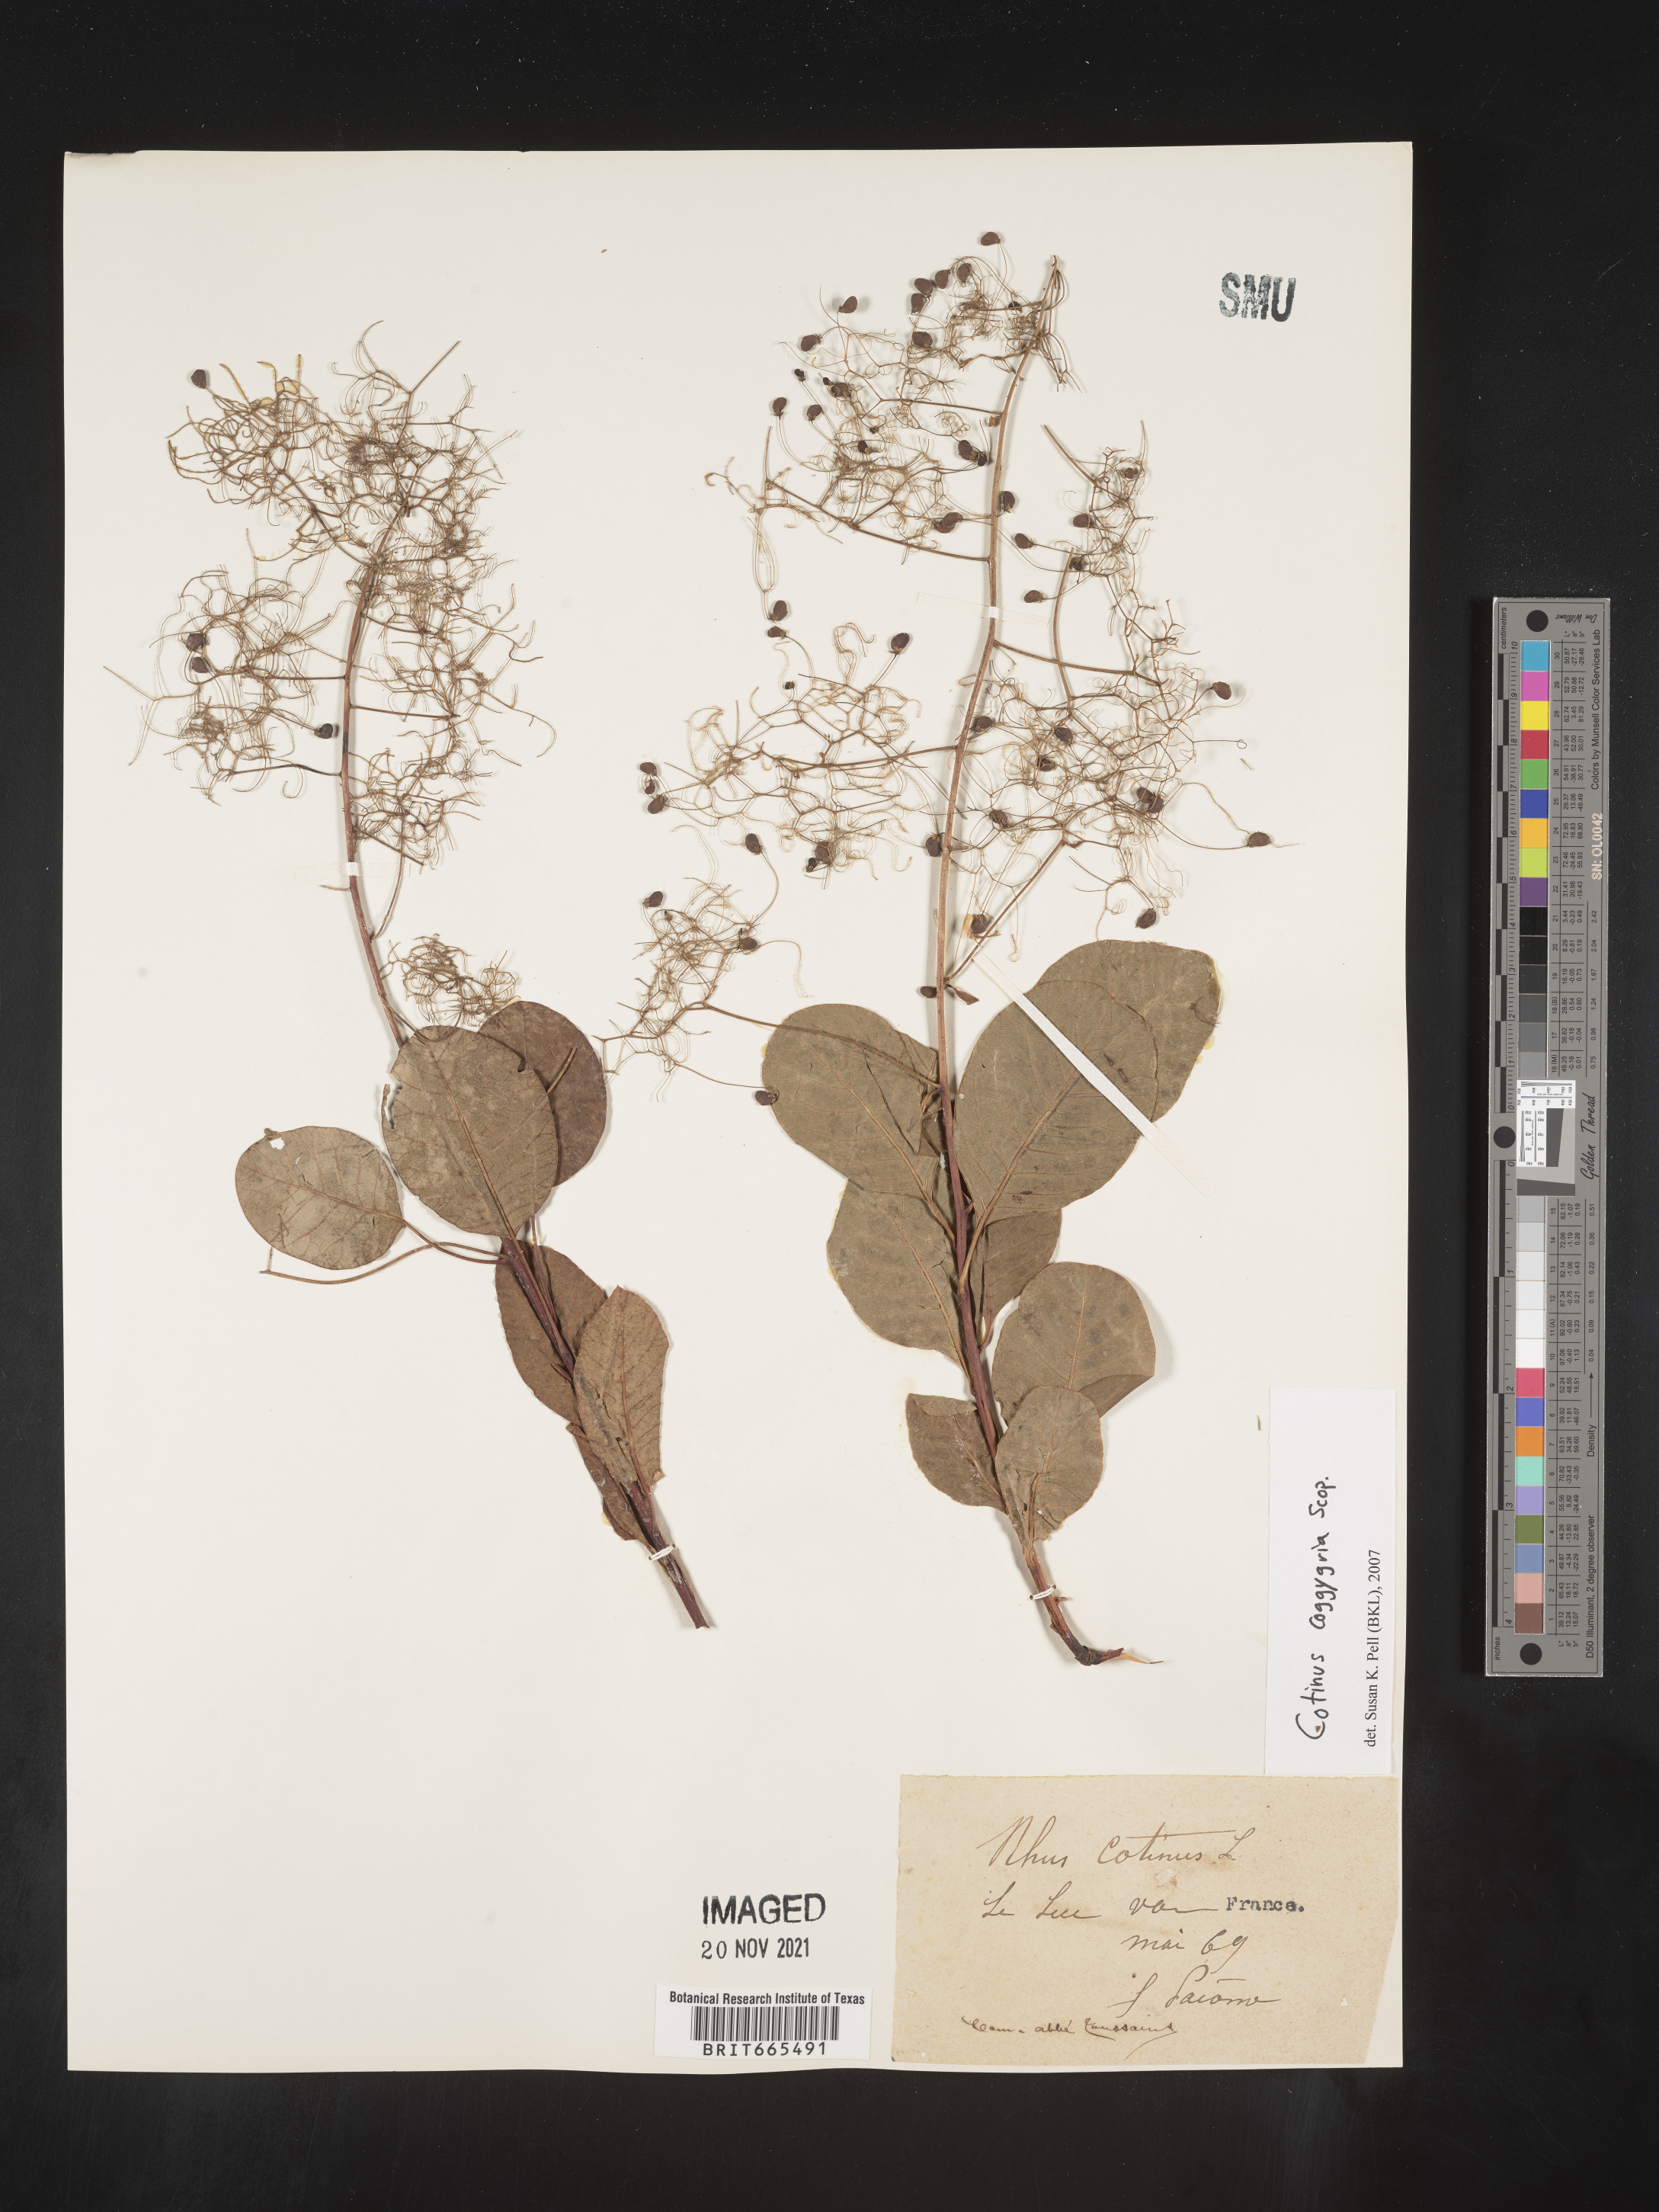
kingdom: Plantae
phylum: Tracheophyta
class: Magnoliopsida
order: Sapindales
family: Anacardiaceae
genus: Cotinus
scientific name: Cotinus
